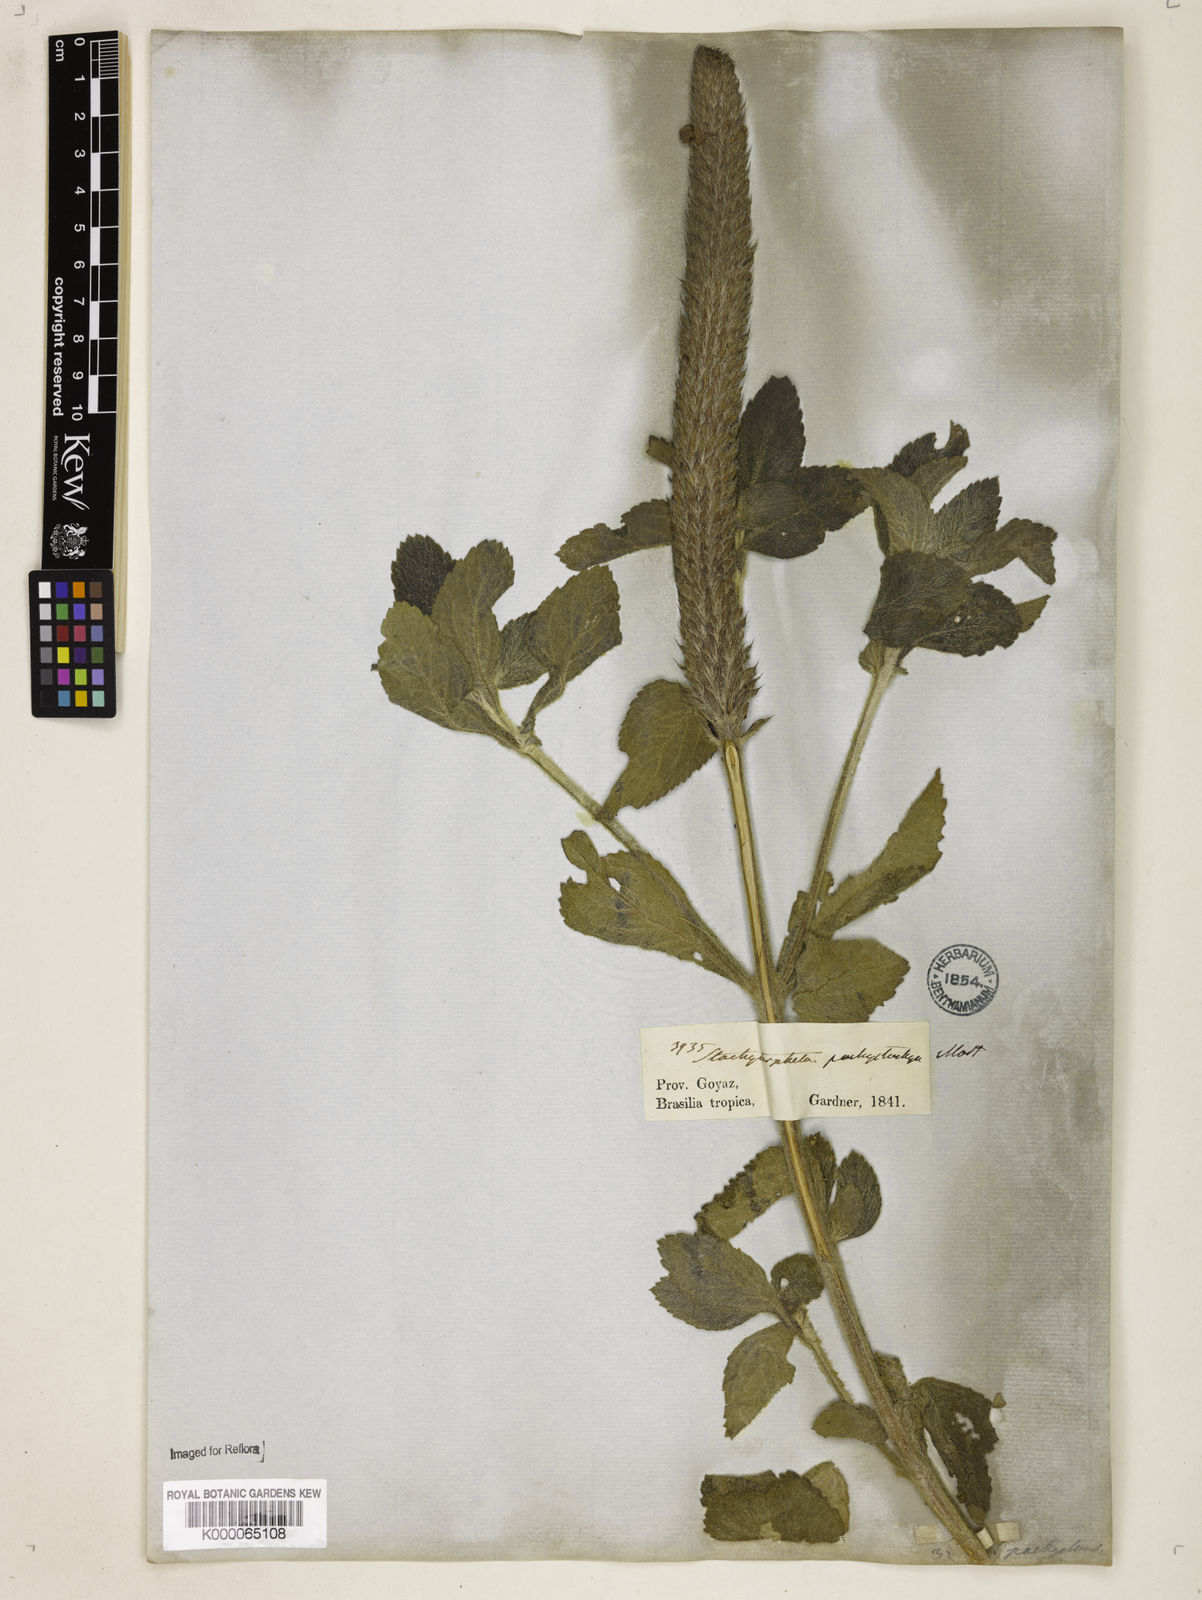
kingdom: Plantae
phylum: Tracheophyta
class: Magnoliopsida
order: Lamiales
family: Verbenaceae
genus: Stachytarpheta
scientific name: Stachytarpheta
